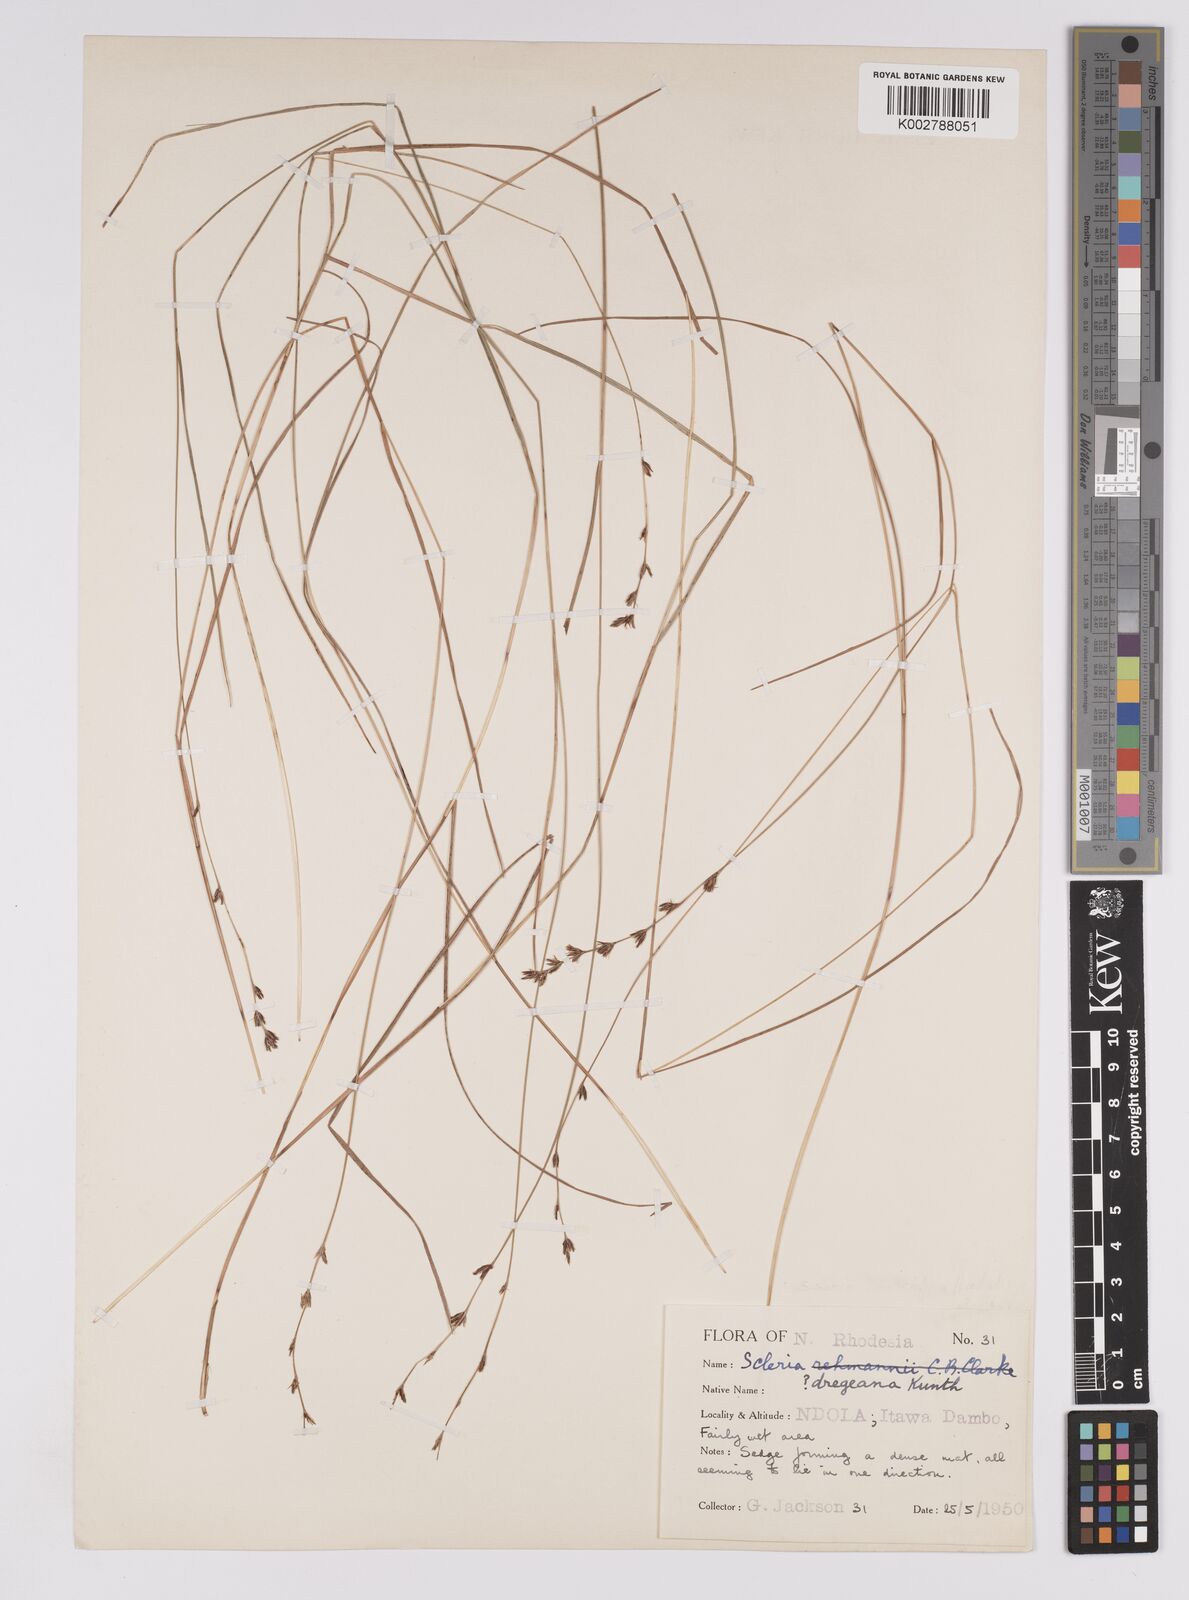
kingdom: Plantae
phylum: Tracheophyta
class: Liliopsida
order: Poales
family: Cyperaceae
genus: Scleria
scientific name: Scleria dregeana
